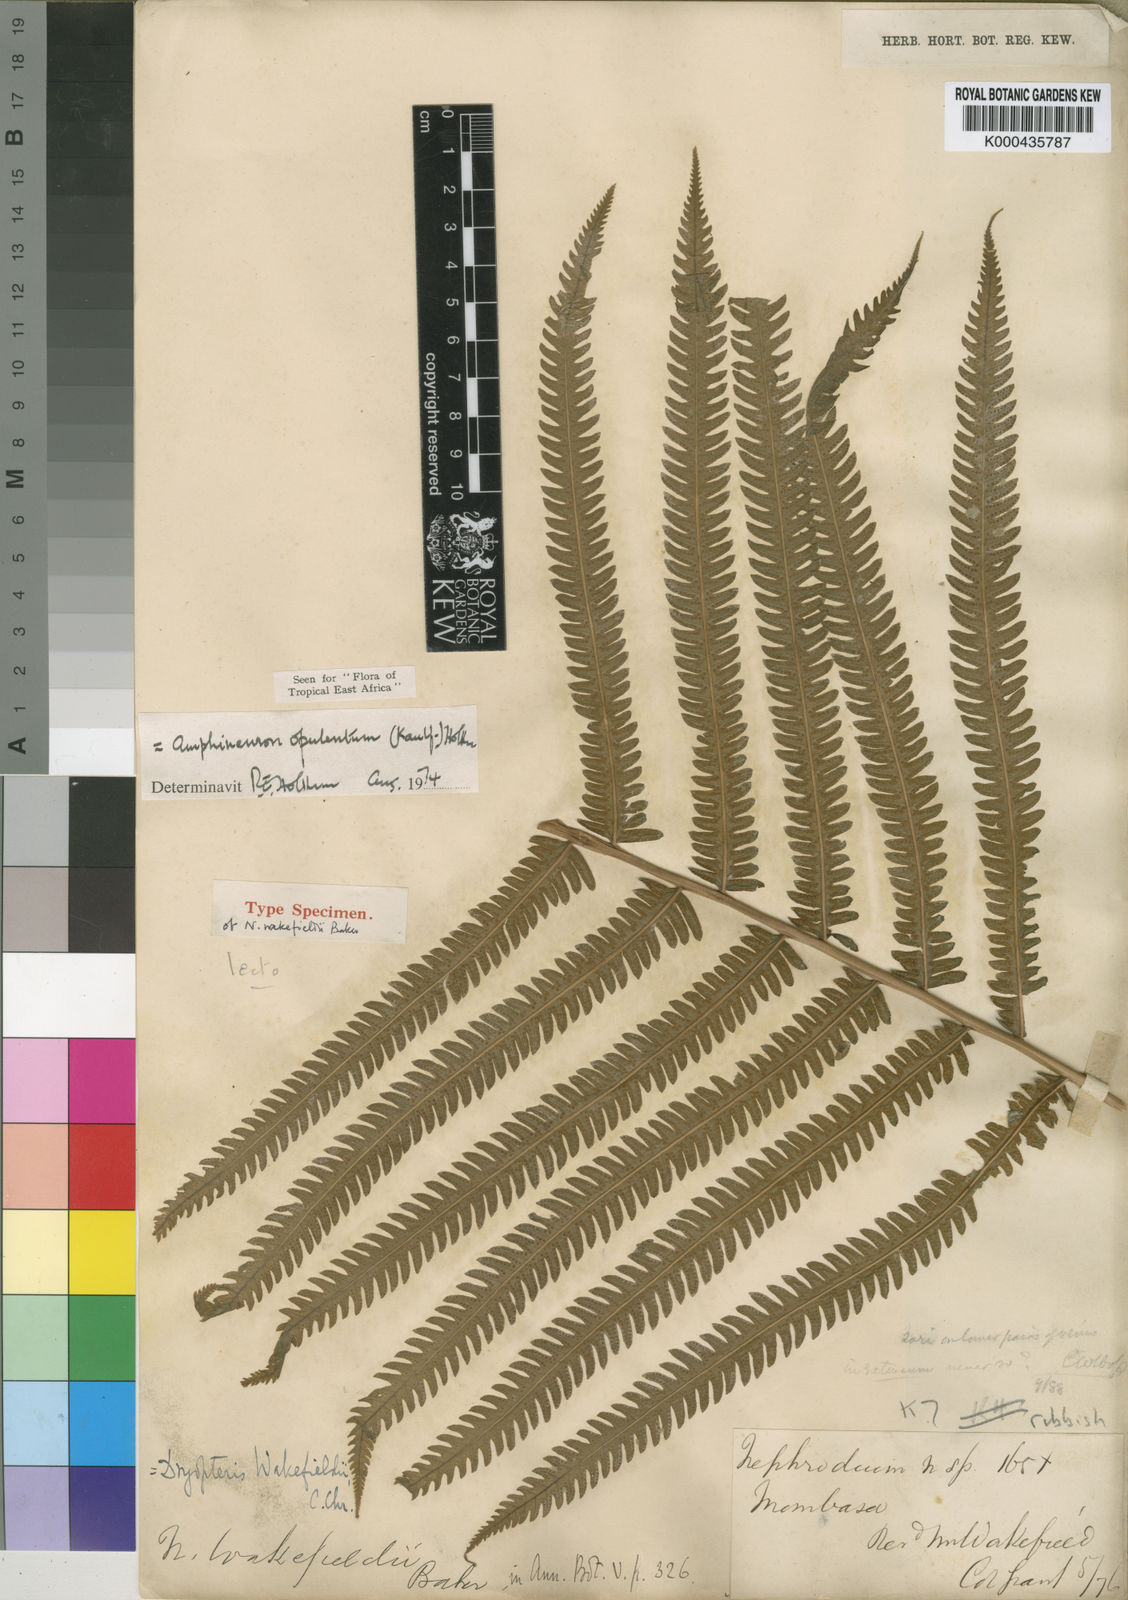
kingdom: Plantae
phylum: Tracheophyta
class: Polypodiopsida
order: Polypodiales
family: Thelypteridaceae
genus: Amblovenatum
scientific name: Amblovenatum opulentum
